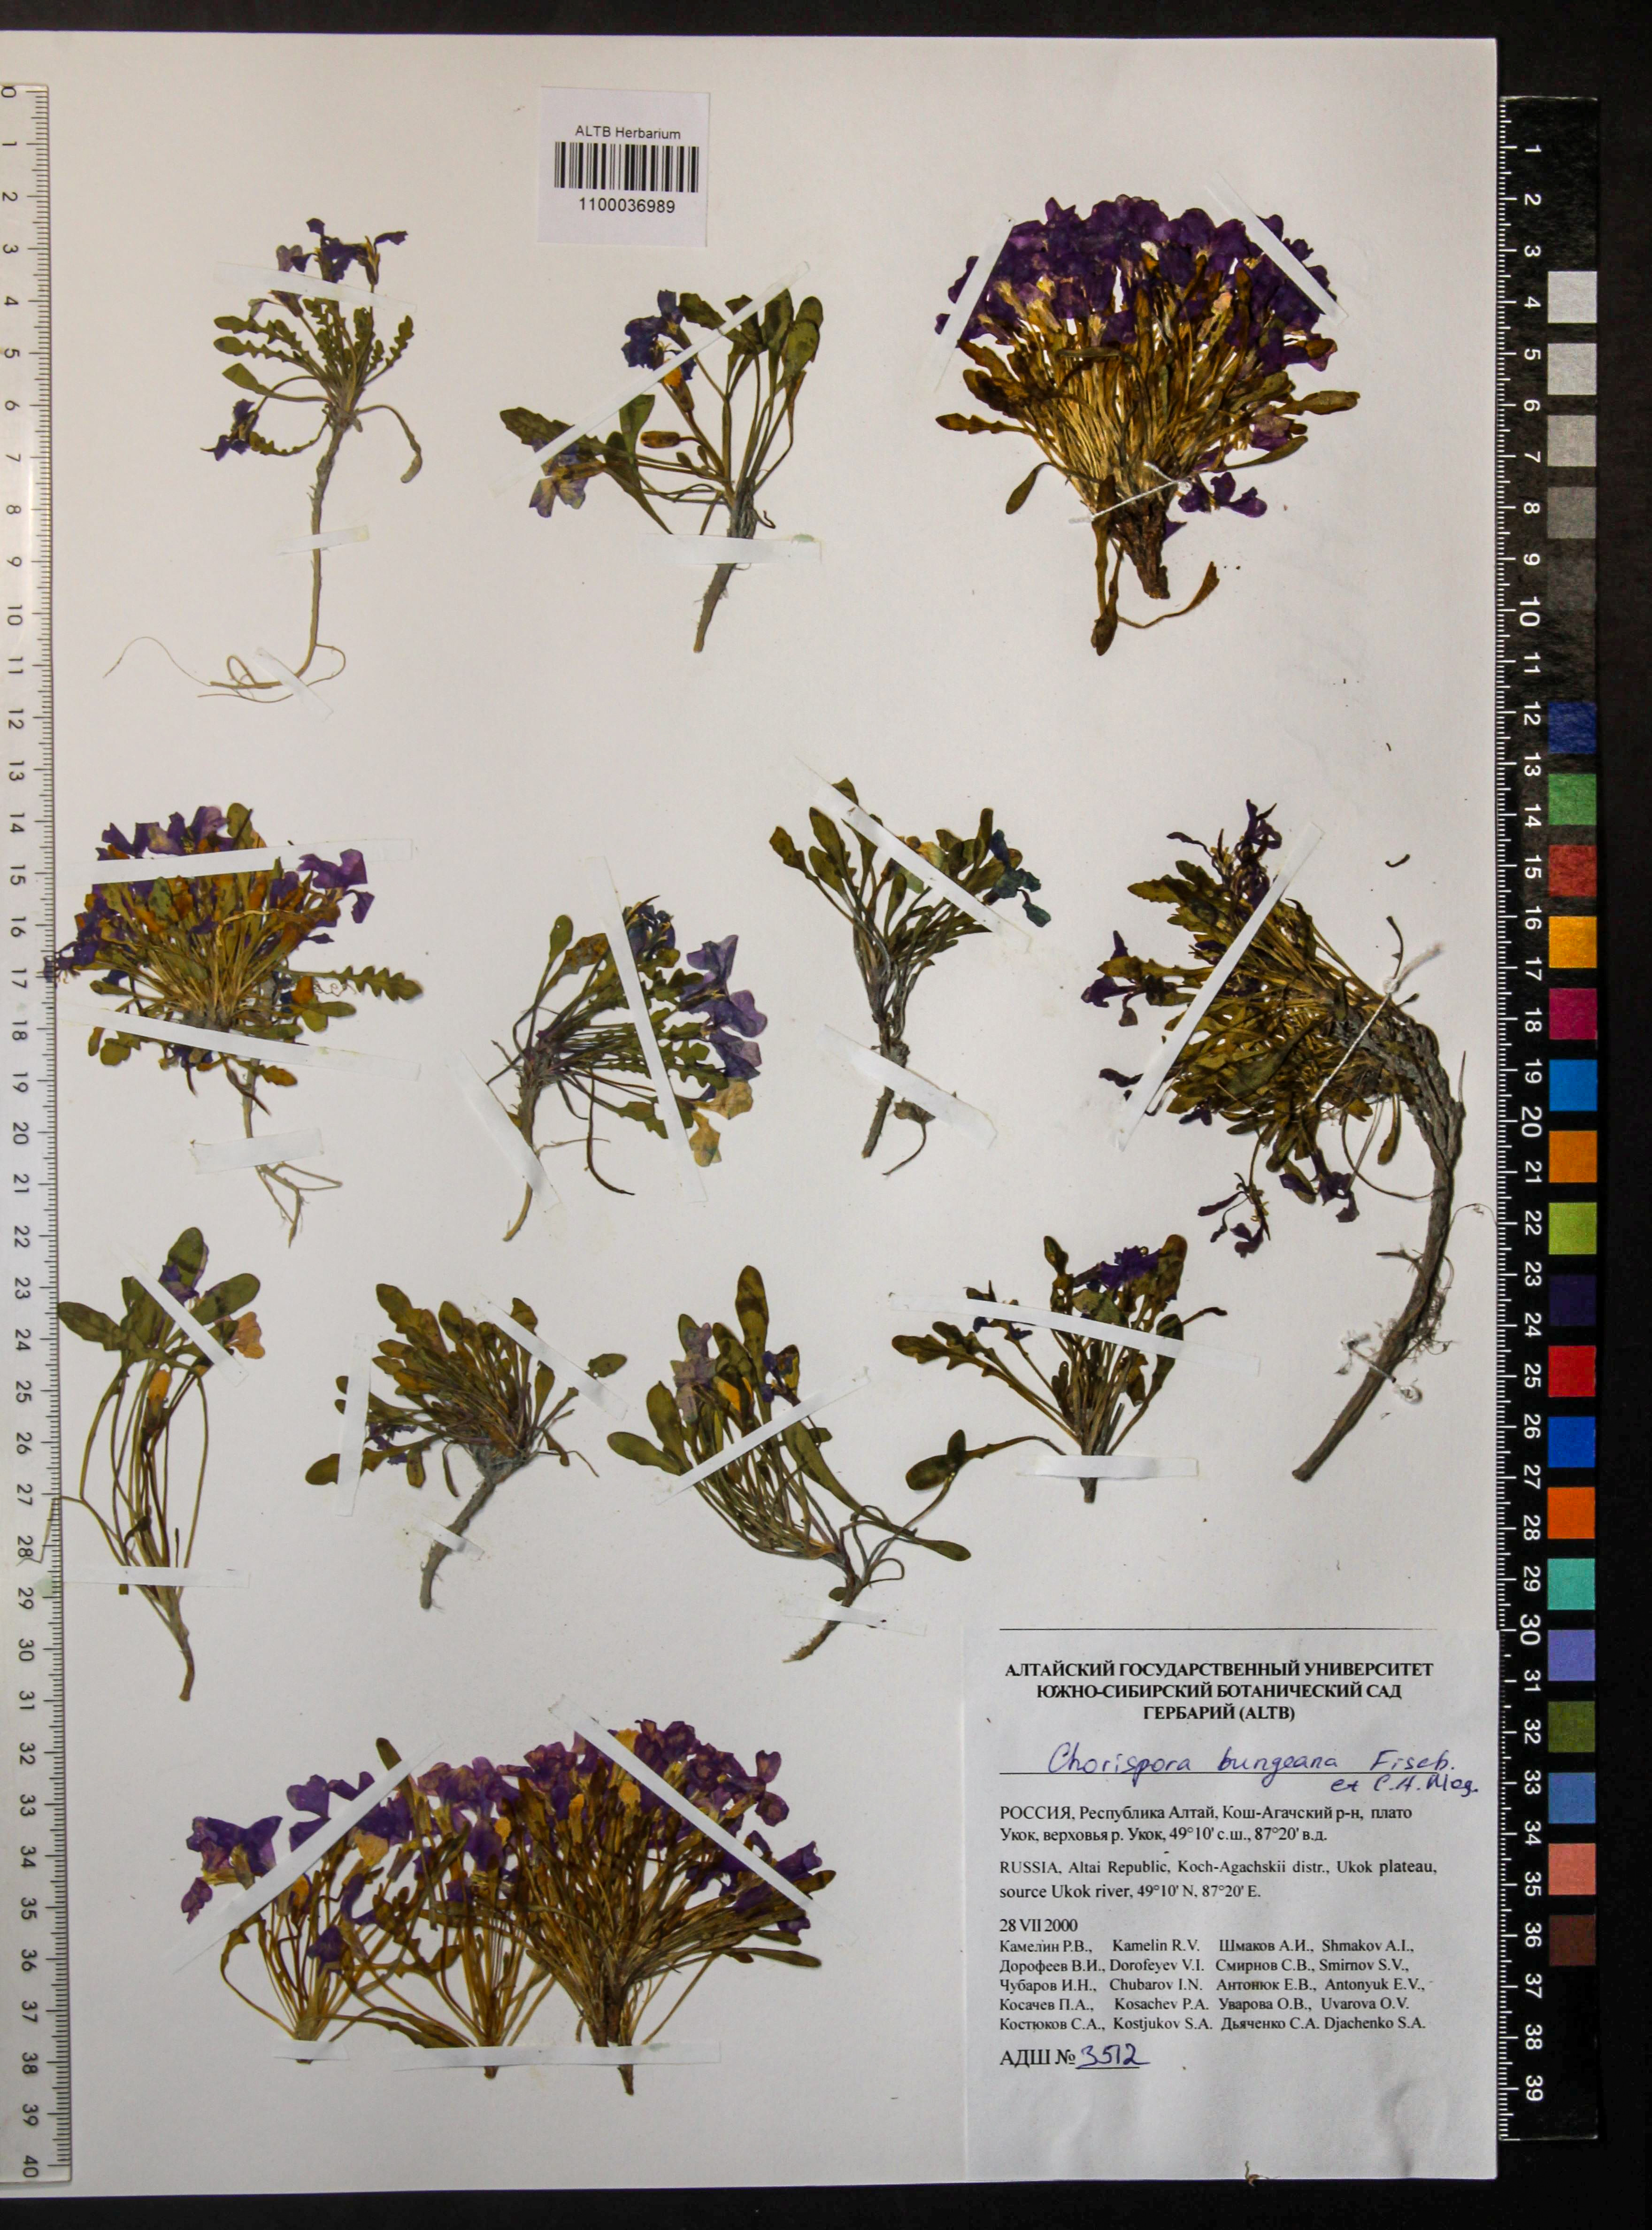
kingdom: Plantae
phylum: Tracheophyta
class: Magnoliopsida
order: Brassicales
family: Brassicaceae
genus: Chorispora
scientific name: Chorispora bungeana
